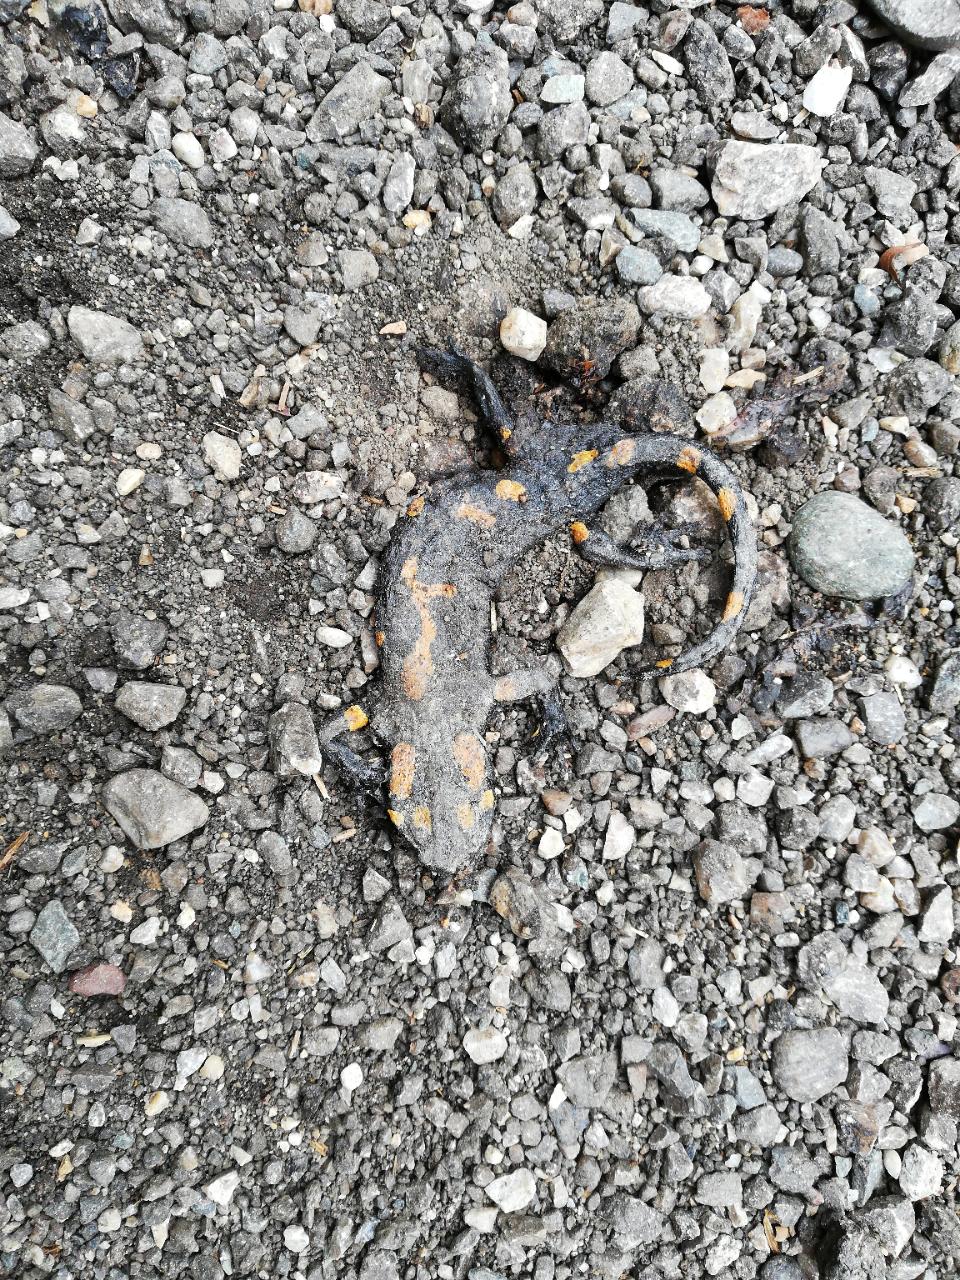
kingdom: Animalia
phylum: Chordata
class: Amphibia
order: Caudata
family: Salamandridae
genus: Salamandra
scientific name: Salamandra salamandra
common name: Fire salamander
